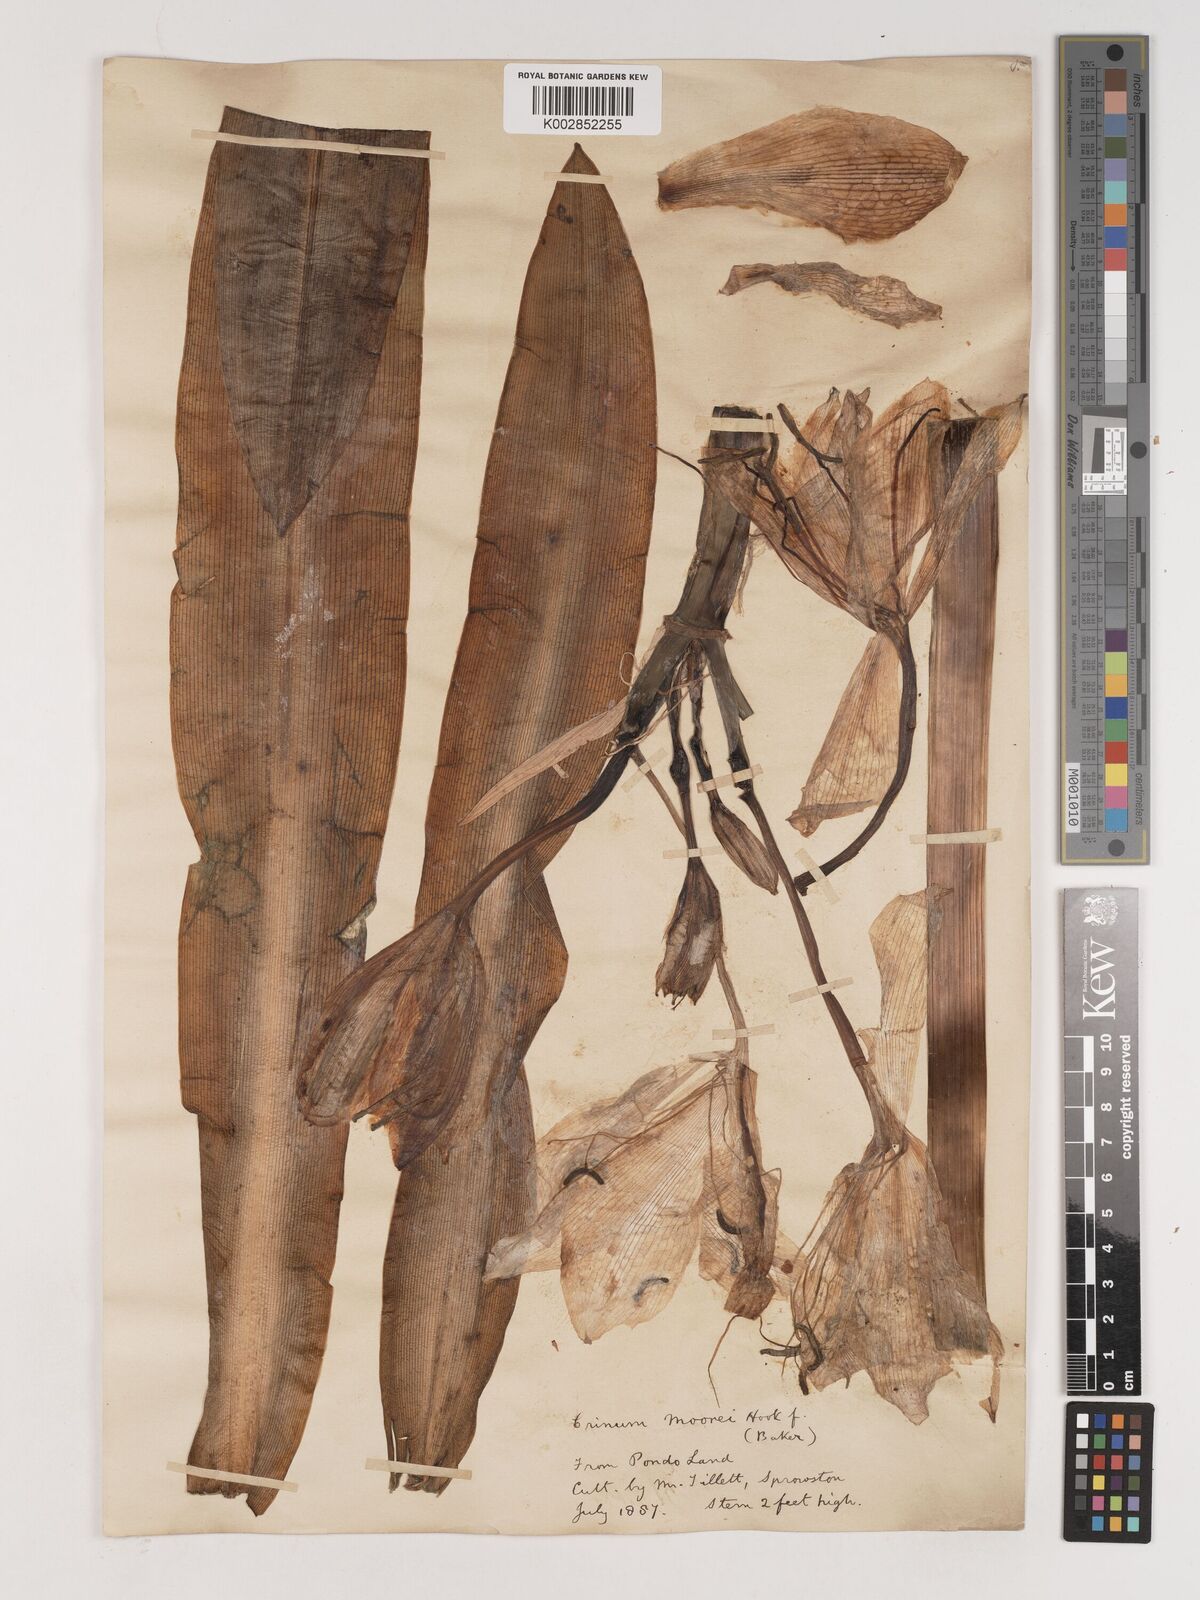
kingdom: Plantae
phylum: Tracheophyta
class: Liliopsida
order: Asparagales
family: Amaryllidaceae
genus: Crinum
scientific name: Crinum moorei
